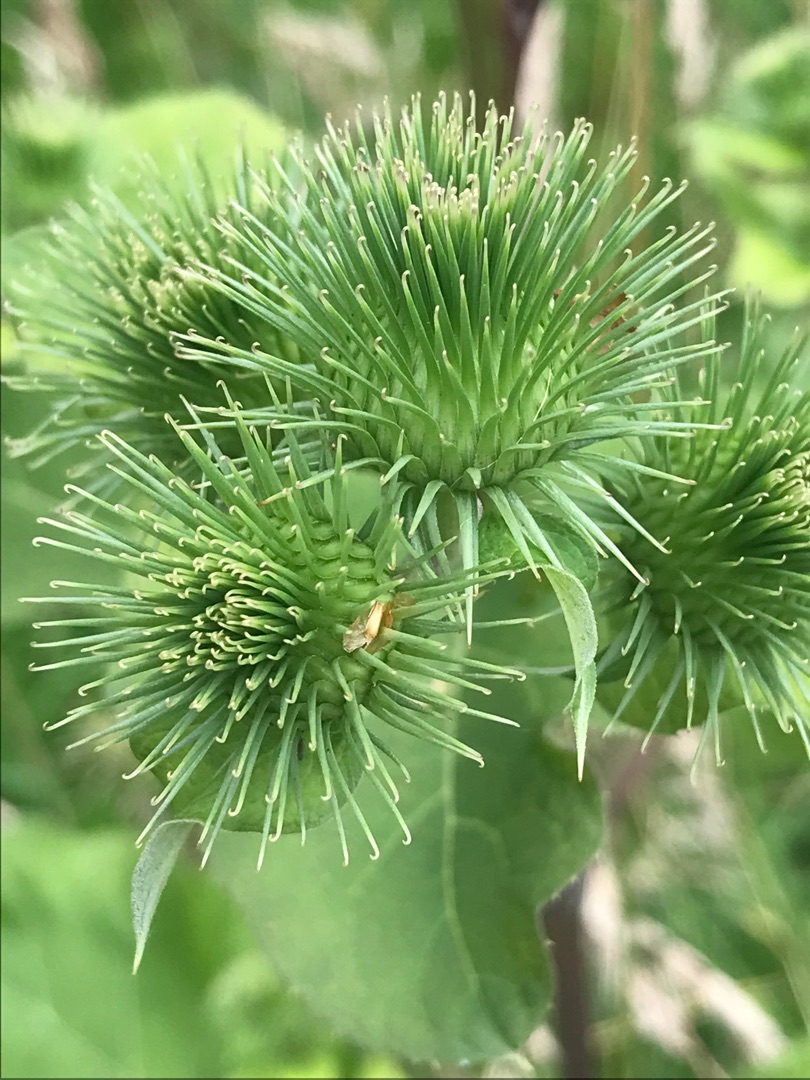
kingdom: Plantae
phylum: Tracheophyta
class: Magnoliopsida
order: Asterales
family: Asteraceae
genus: Arctium
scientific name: Arctium lappa
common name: Glat burre
